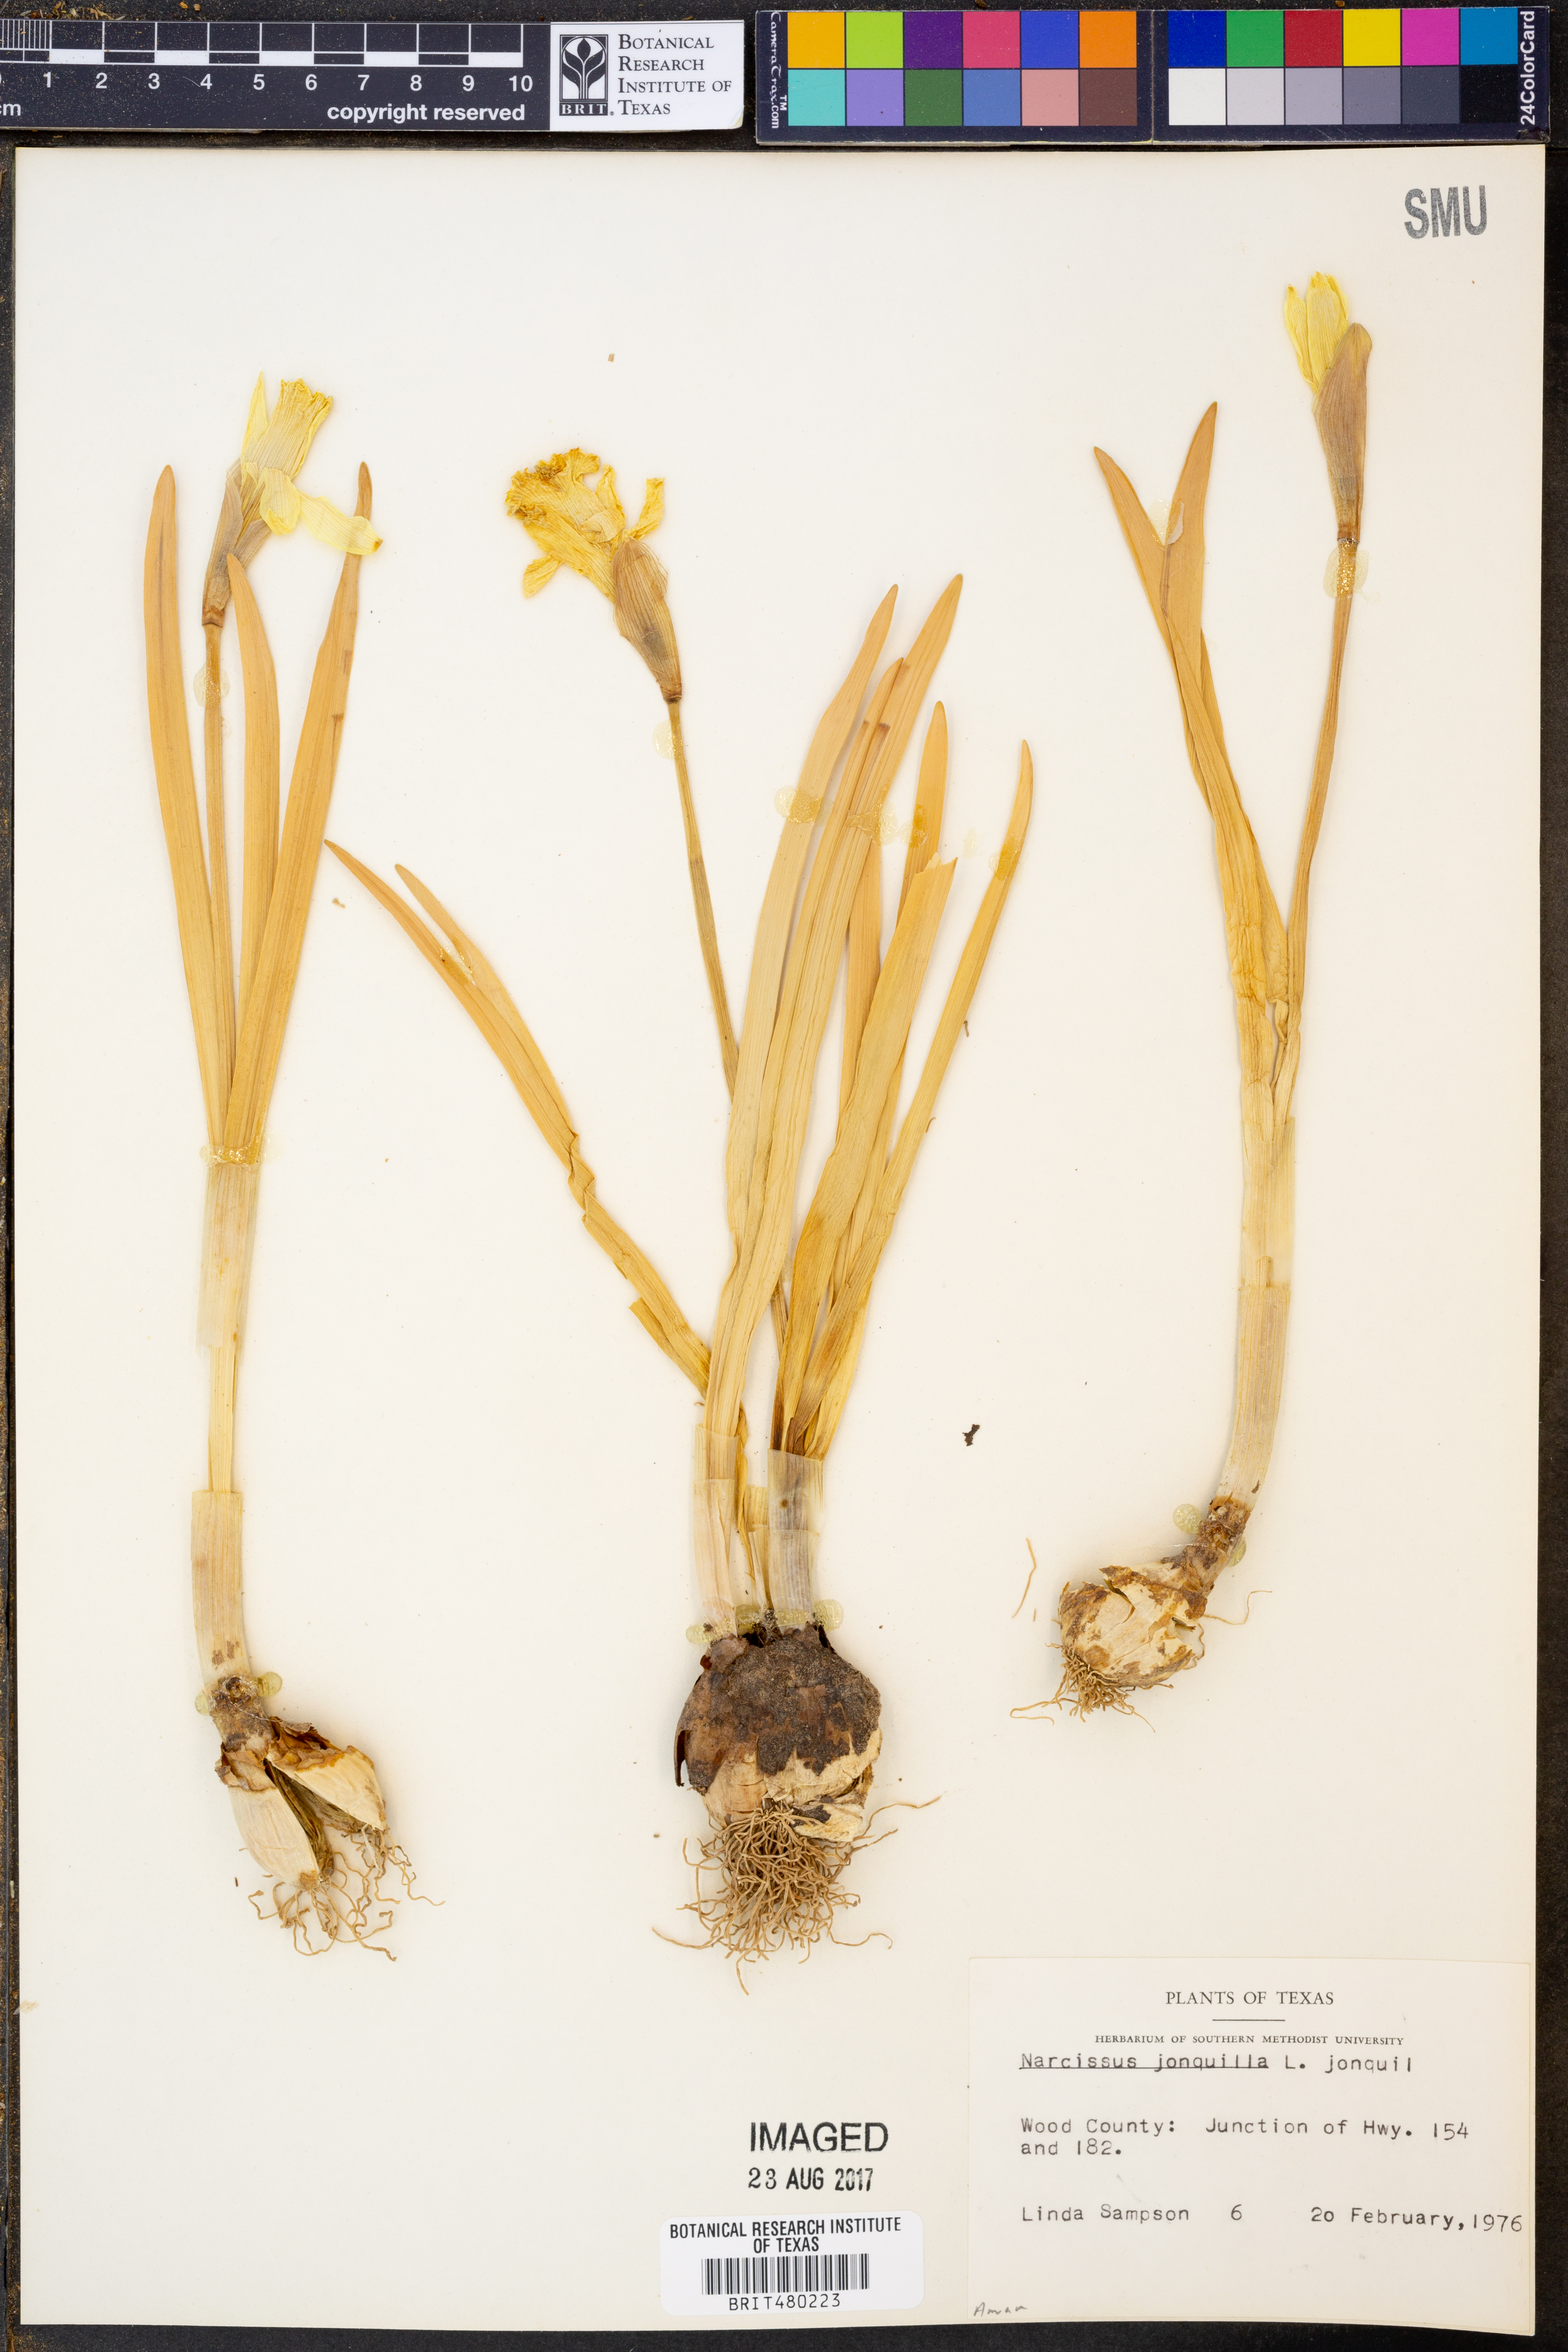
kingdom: Plantae
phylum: Tracheophyta
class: Liliopsida
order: Asparagales
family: Amaryllidaceae
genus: Narcissus
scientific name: Narcissus jonquilla
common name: Jonquil
